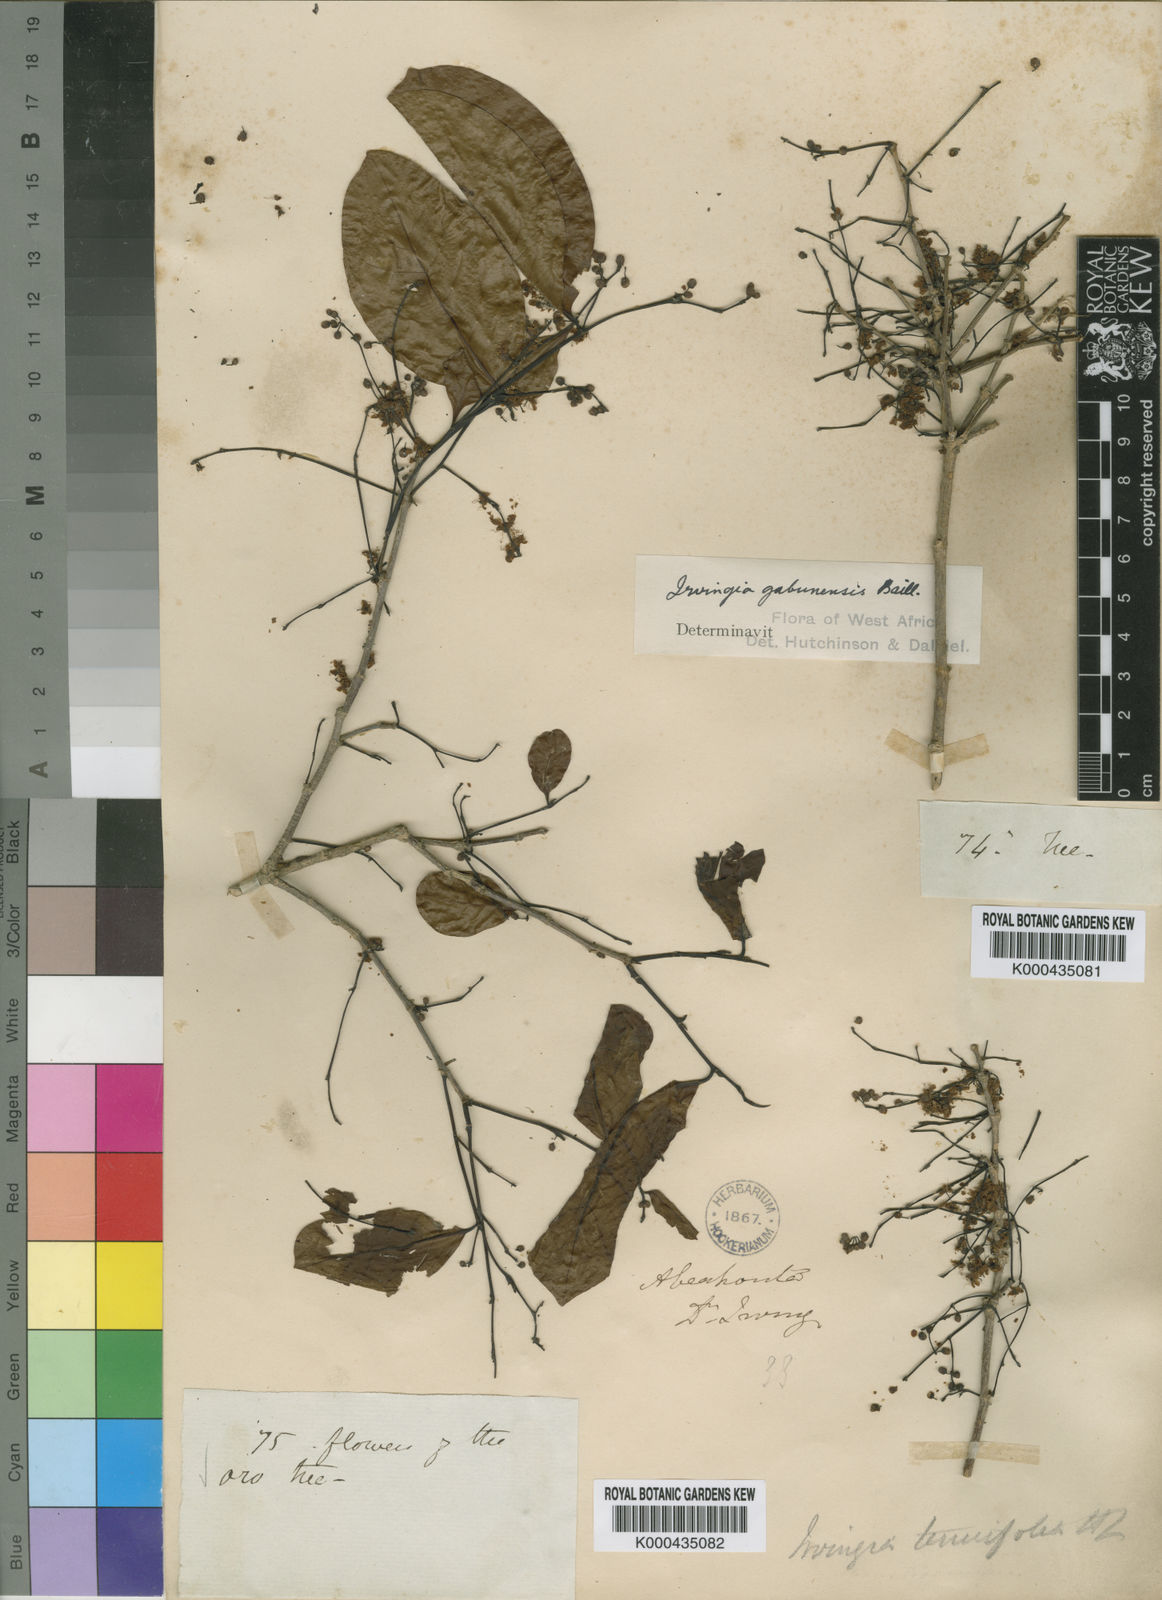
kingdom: Plantae
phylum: Tracheophyta
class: Magnoliopsida
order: Malpighiales
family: Irvingiaceae
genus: Irvingia
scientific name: Irvingia gabonensis
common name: Rainy season bush-mango
